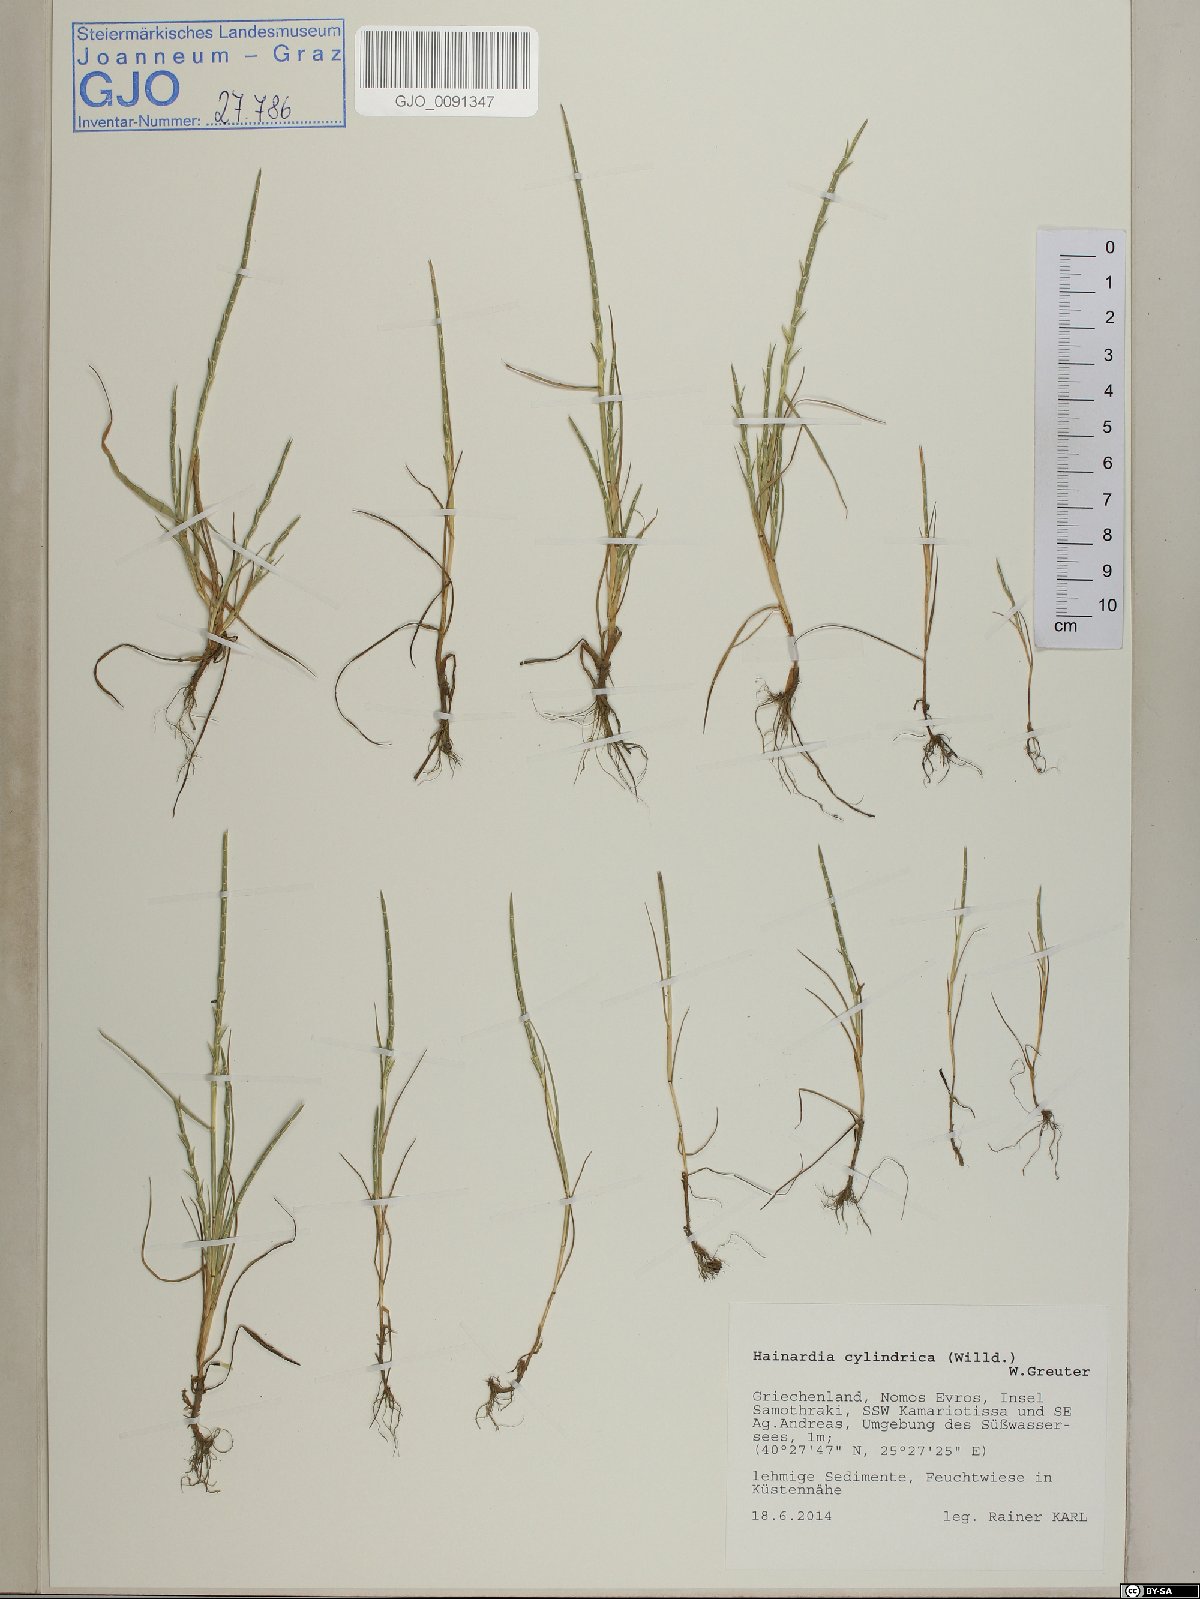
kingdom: Plantae
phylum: Tracheophyta
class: Liliopsida
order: Poales
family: Poaceae
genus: Parapholis
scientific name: Parapholis cylindrica
